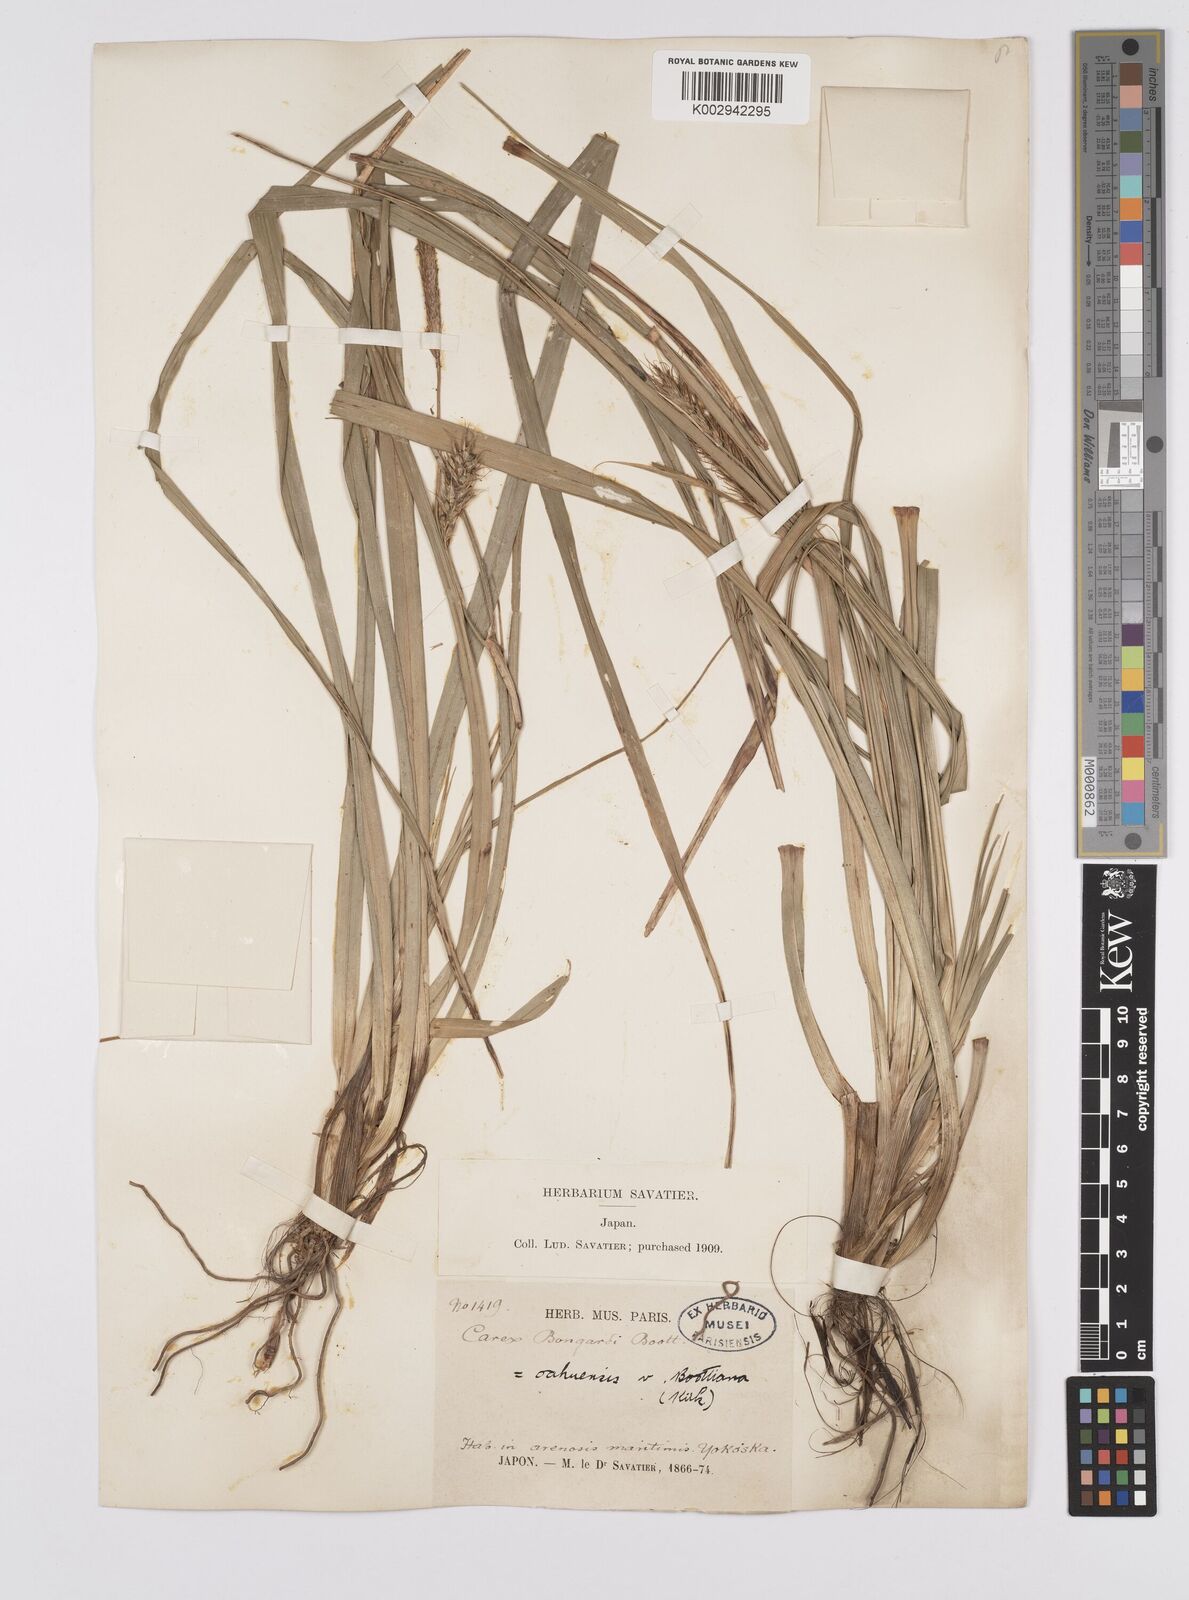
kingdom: Plantae
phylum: Tracheophyta
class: Liliopsida
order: Poales
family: Cyperaceae
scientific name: Cyperaceae
